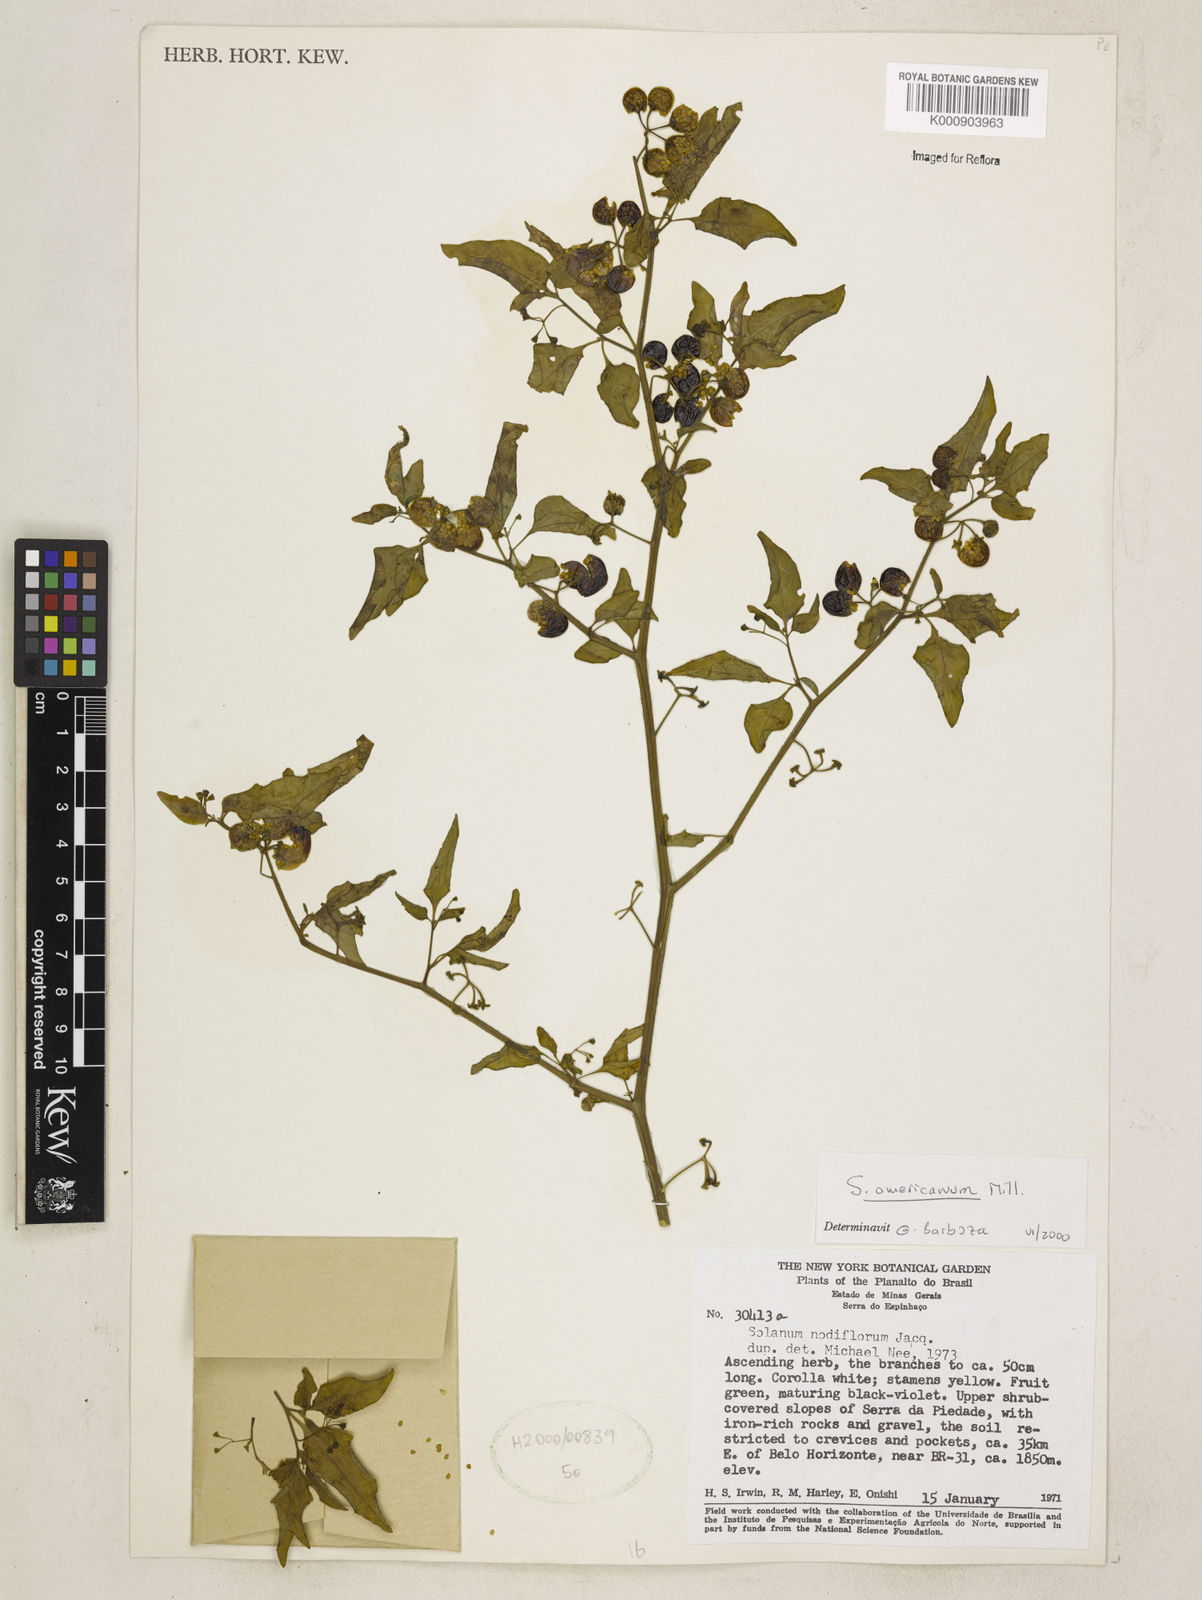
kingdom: Plantae
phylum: Tracheophyta
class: Magnoliopsida
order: Solanales
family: Solanaceae
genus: Solanum
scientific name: Solanum americanum
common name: American black nightshade
